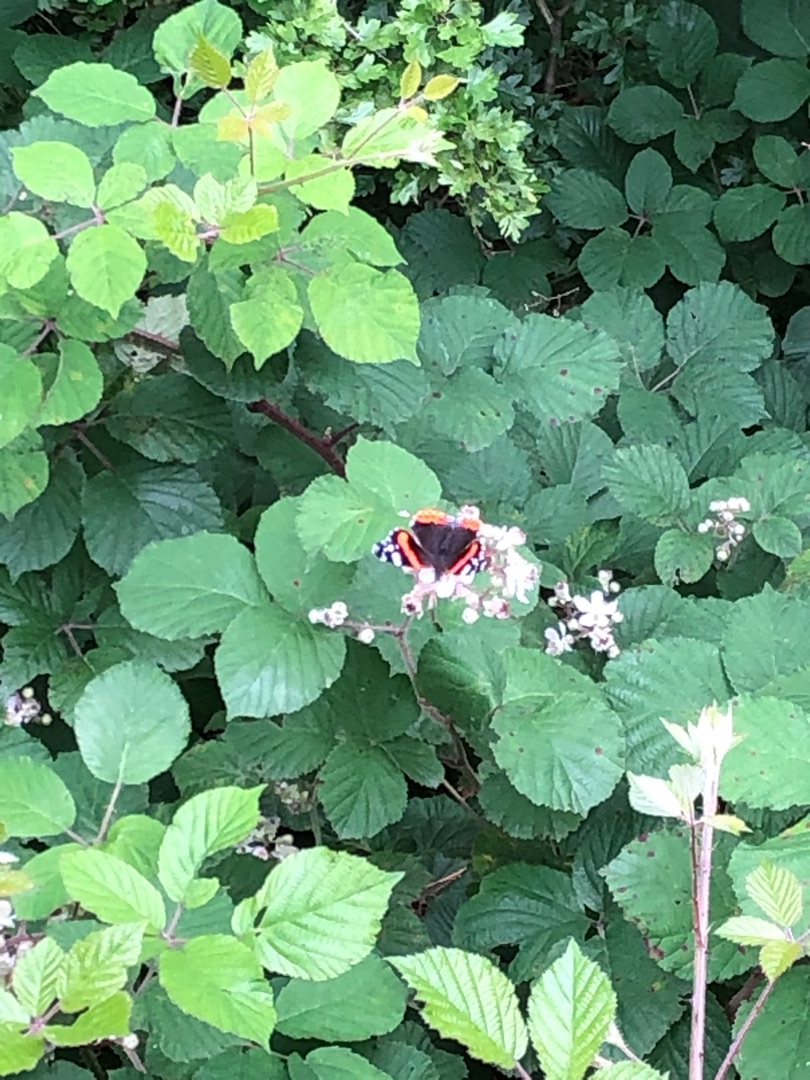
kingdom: Animalia
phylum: Arthropoda
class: Insecta
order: Lepidoptera
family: Nymphalidae
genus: Vanessa
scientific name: Vanessa atalanta
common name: Admiral
